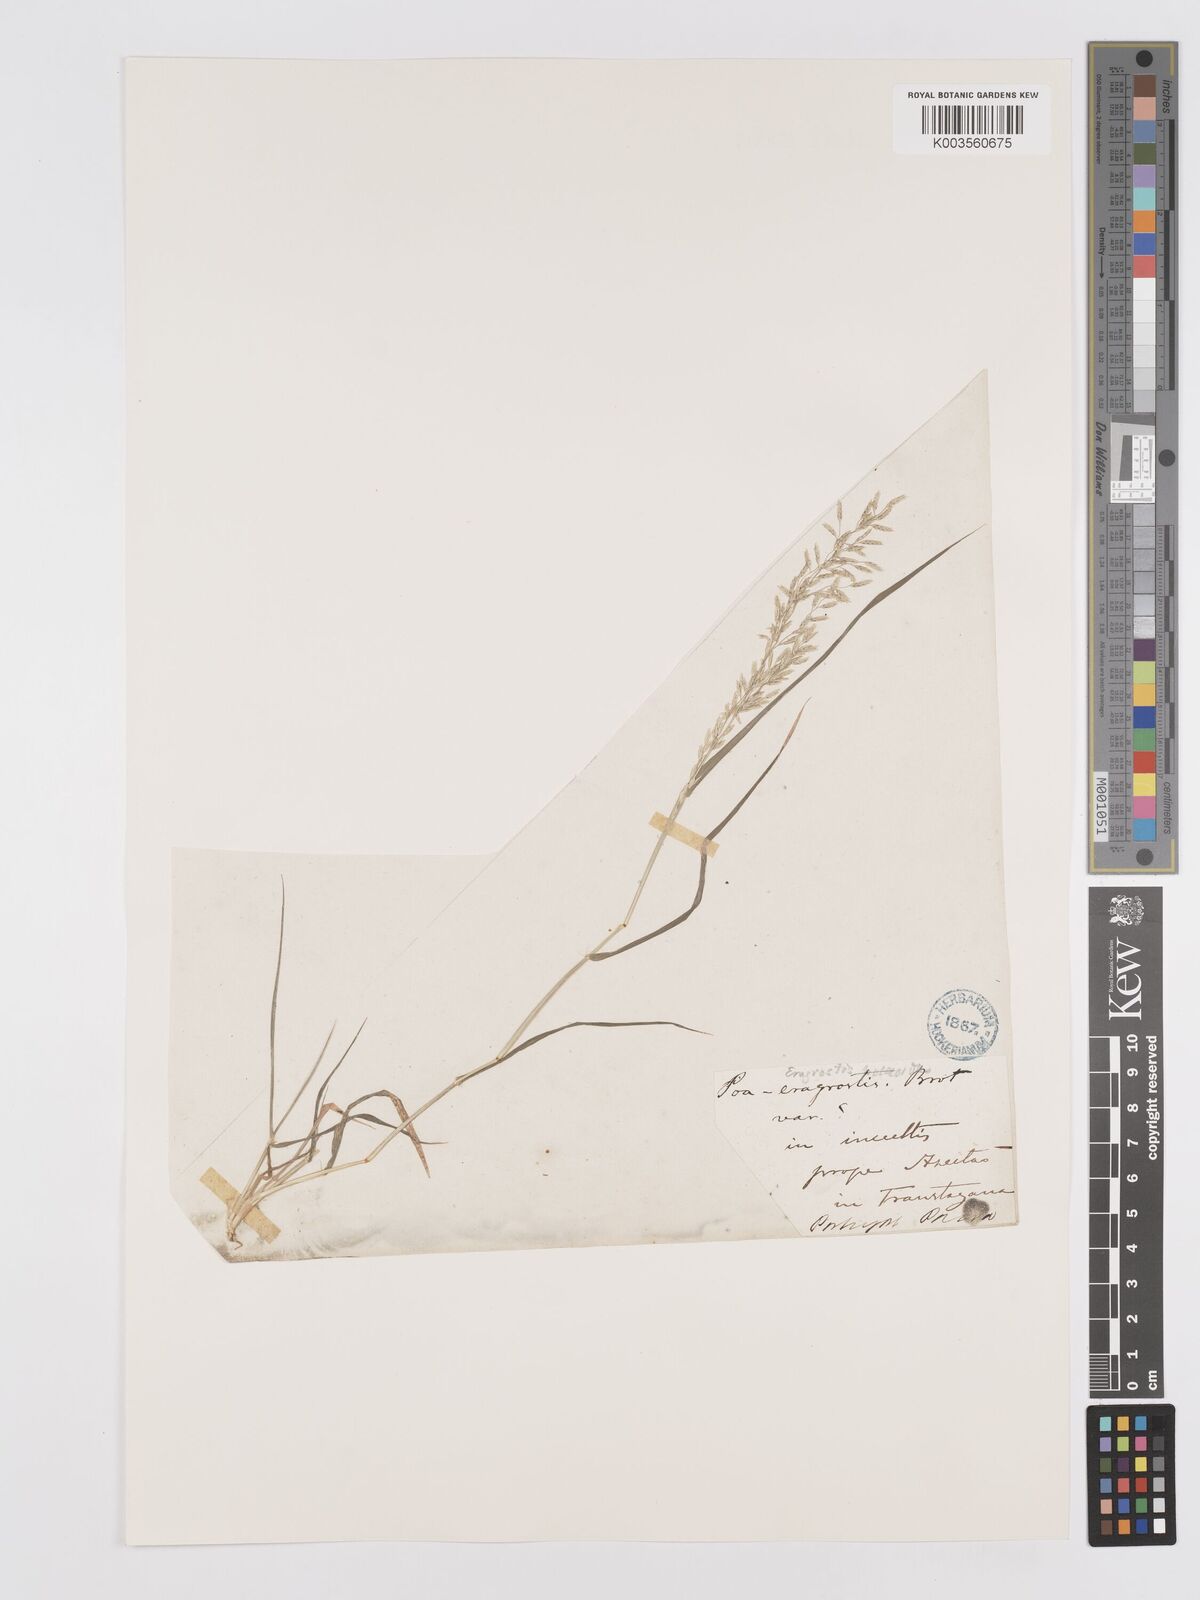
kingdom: Plantae
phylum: Tracheophyta
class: Liliopsida
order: Poales
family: Poaceae
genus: Eragrostis
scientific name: Eragrostis minor
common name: Small love-grass
